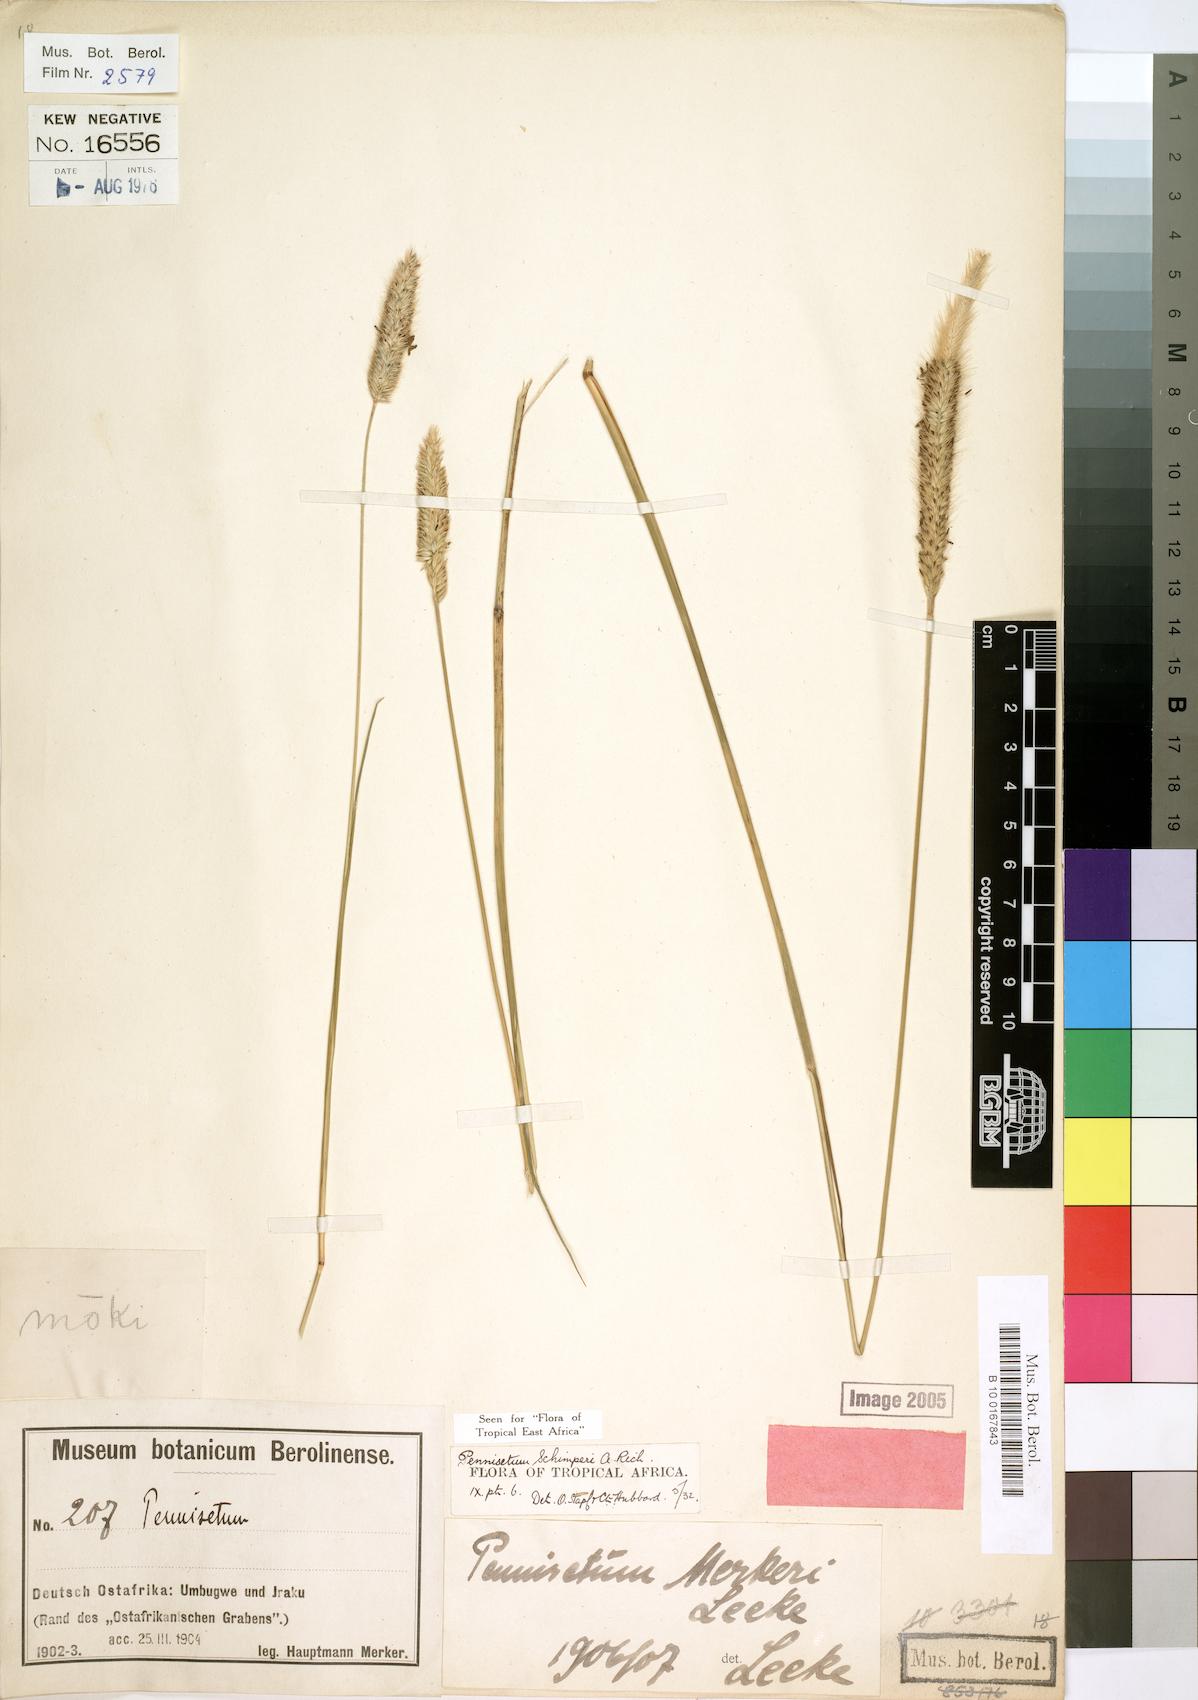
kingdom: Plantae
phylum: Tracheophyta
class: Liliopsida
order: Poales
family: Poaceae
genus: Cenchrus
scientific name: Cenchrus sphacelatus
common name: Bulgras
